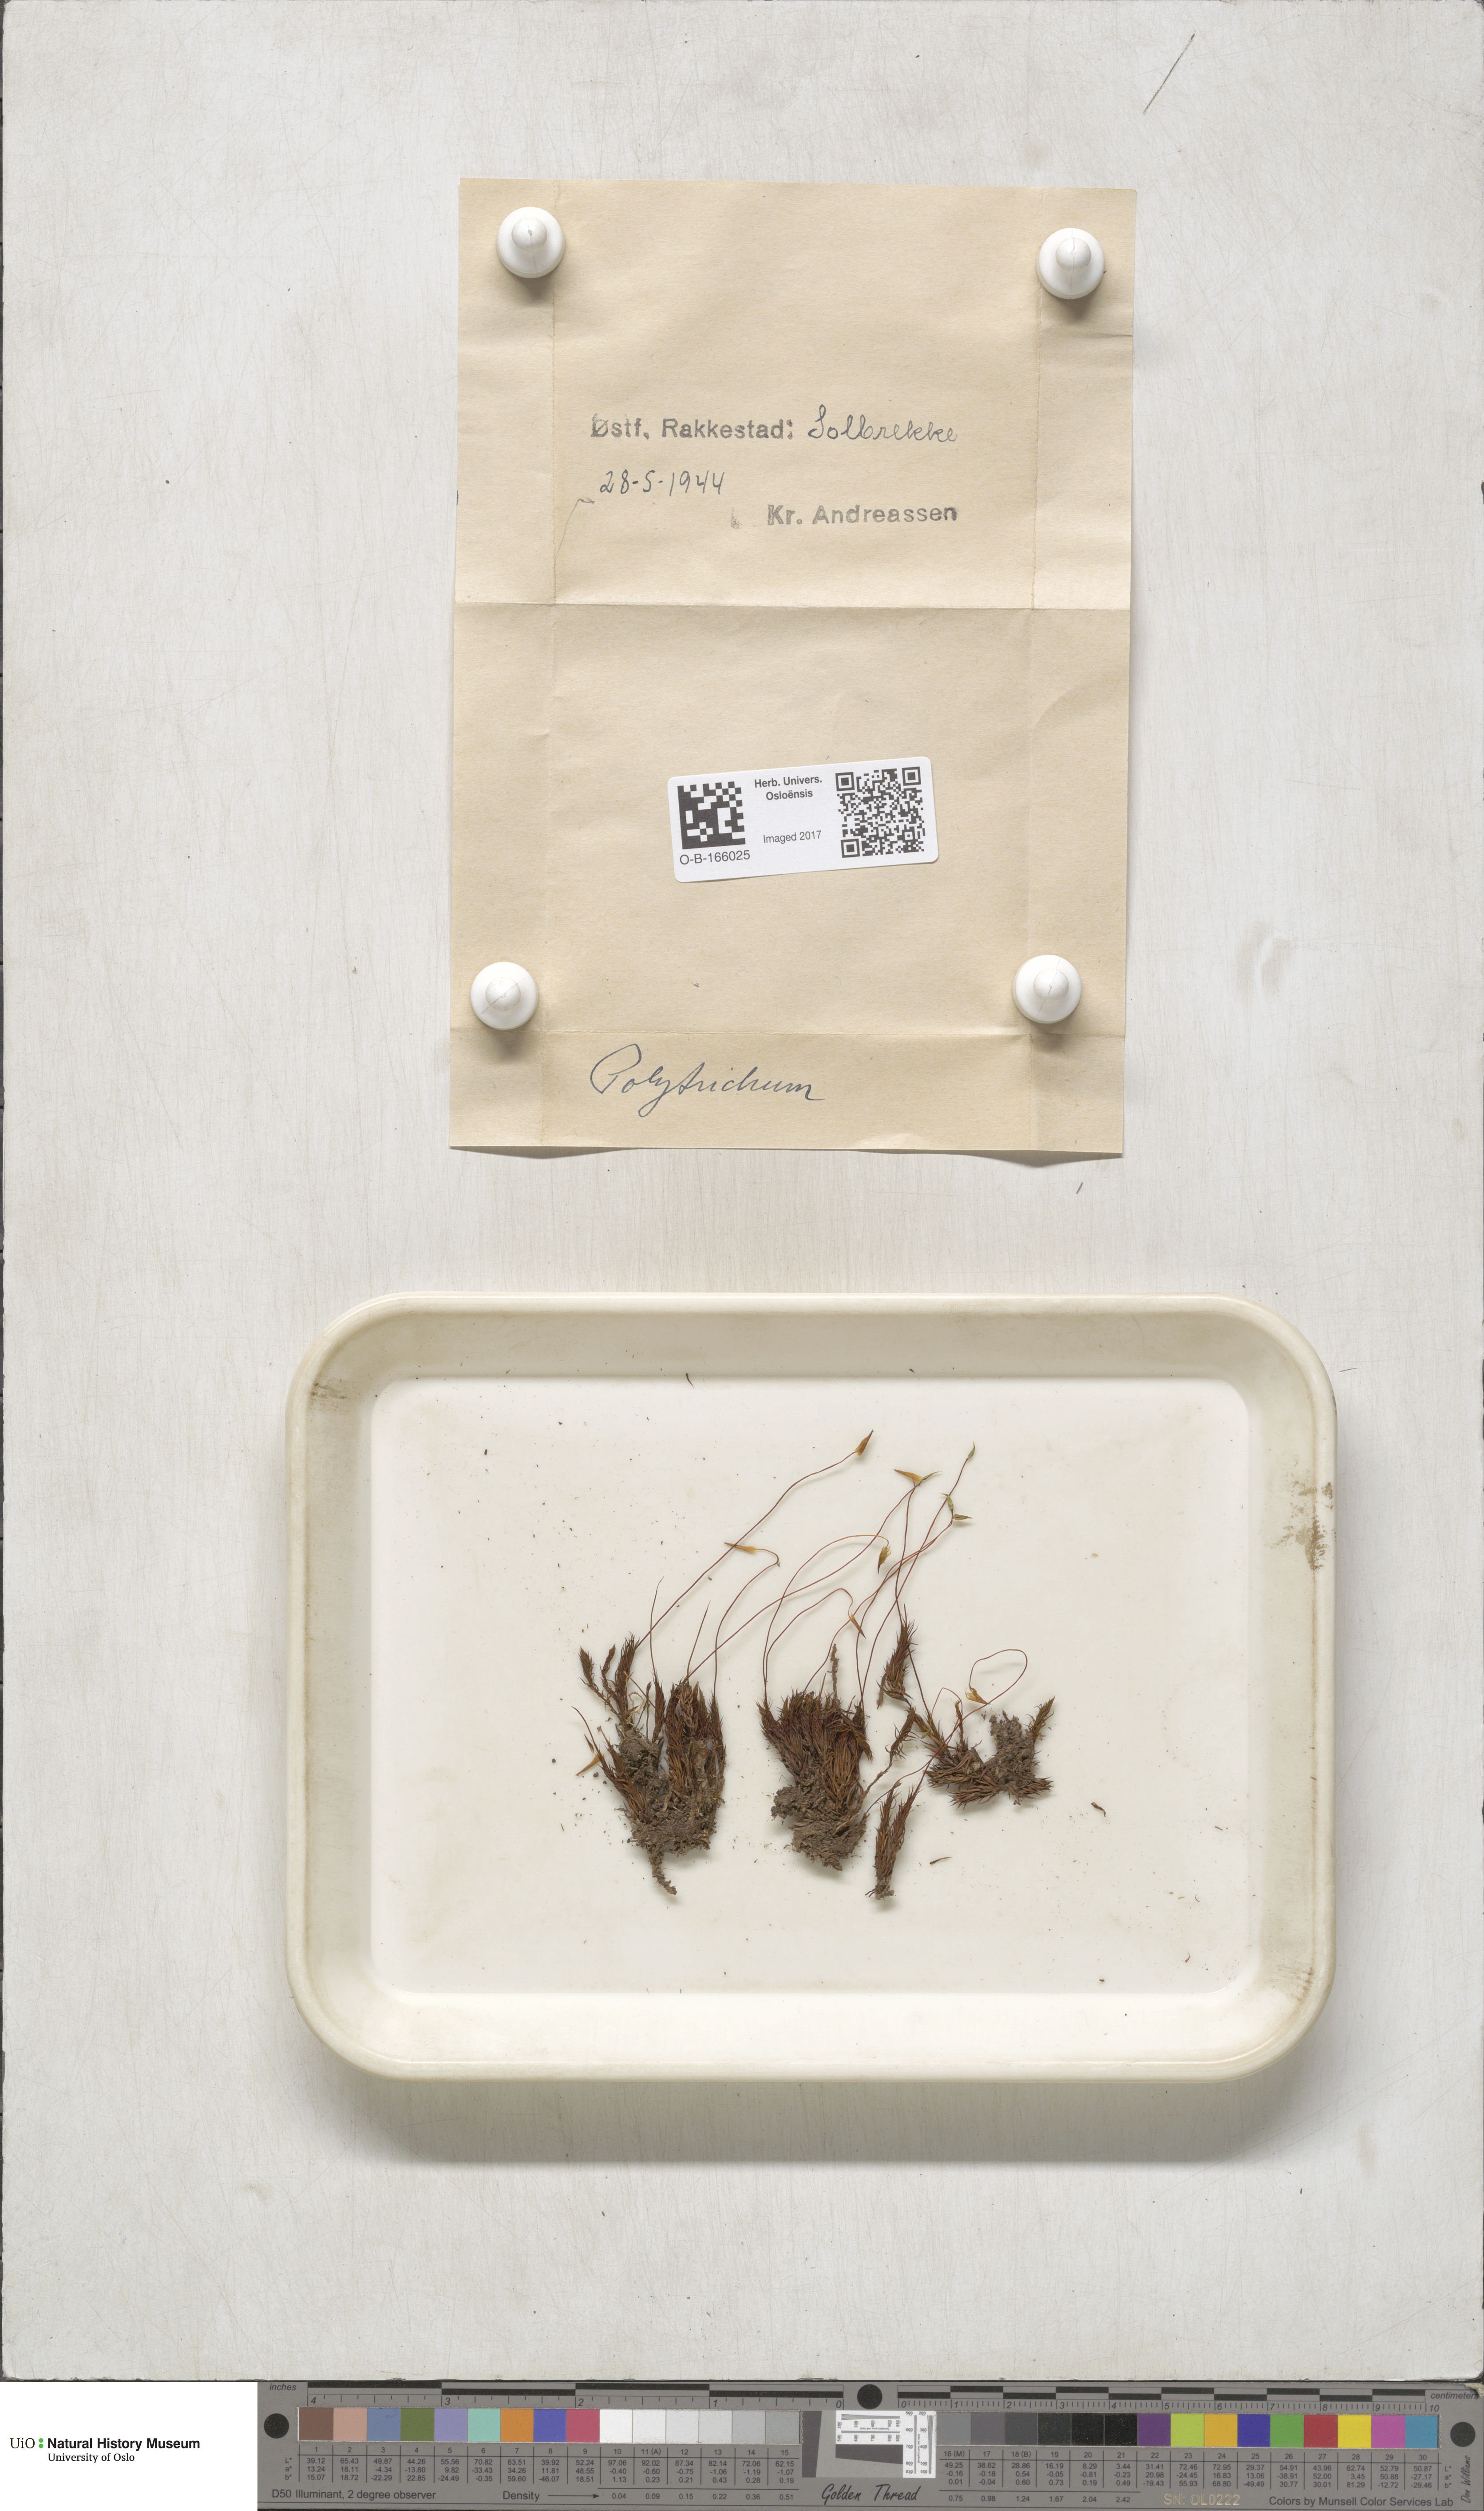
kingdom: Plantae
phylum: Bryophyta
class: Polytrichopsida
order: Polytrichales
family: Polytrichaceae
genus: Polytrichum
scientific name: Polytrichum
